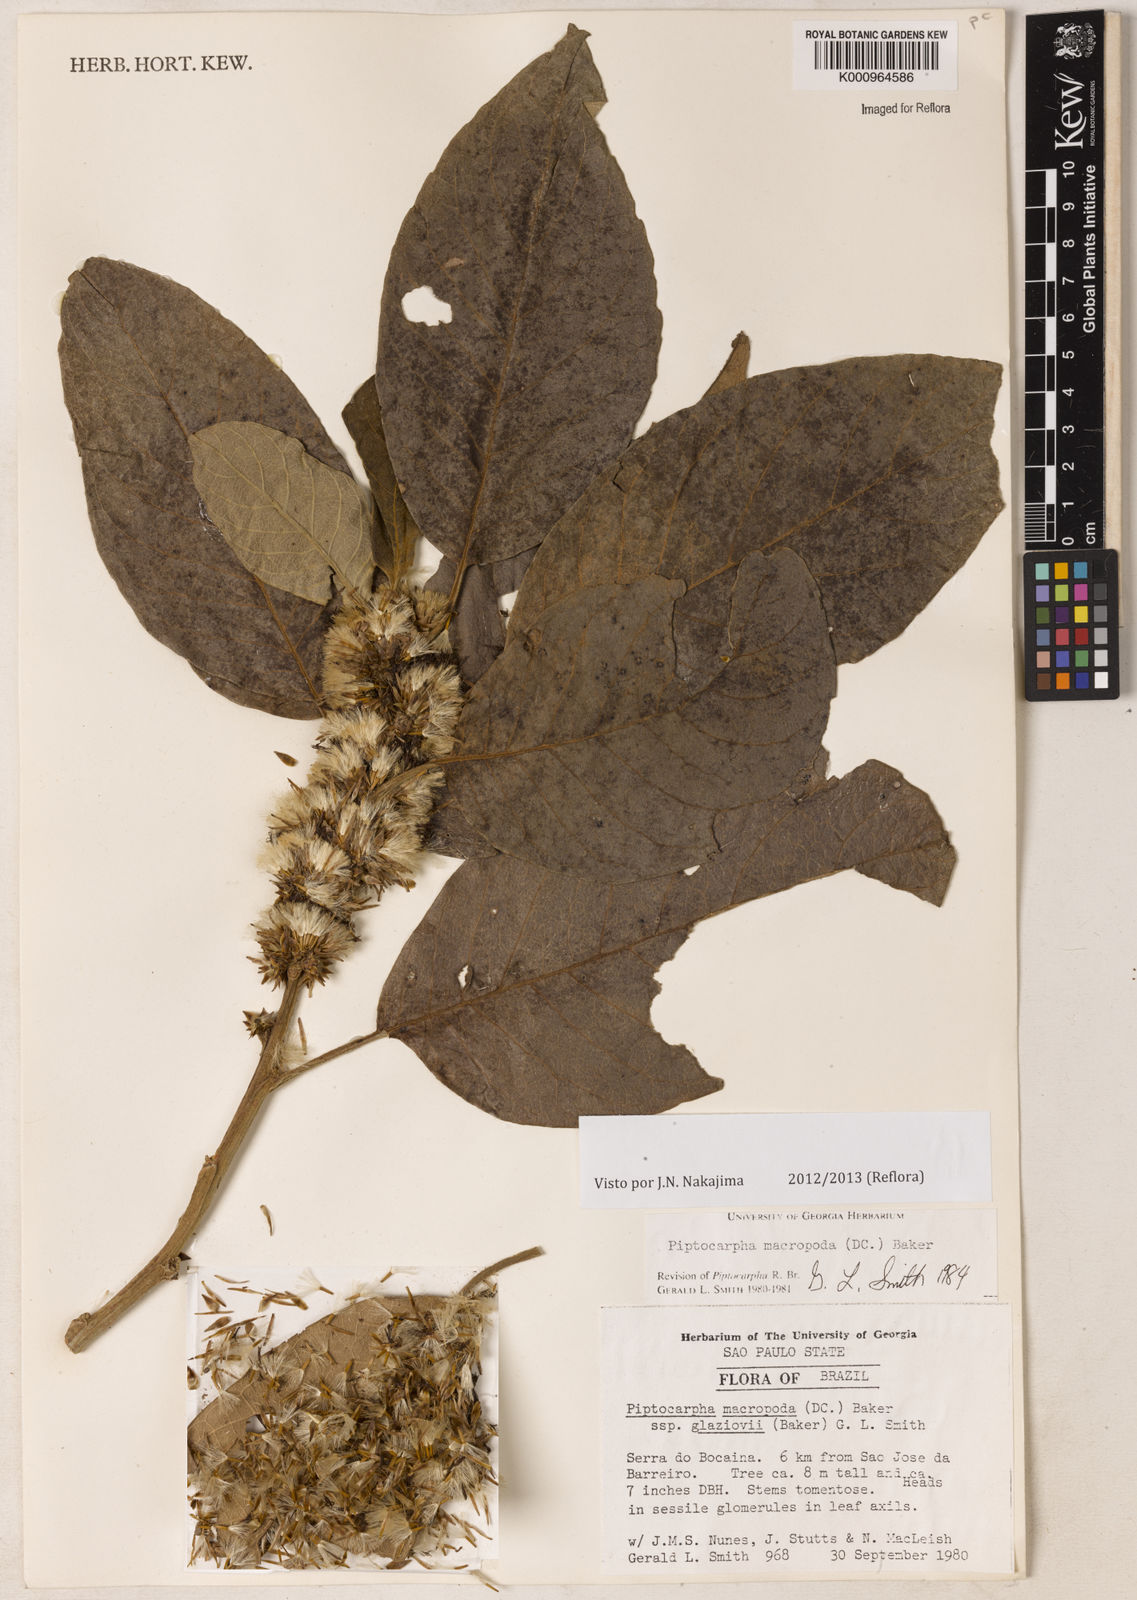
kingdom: Plantae
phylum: Tracheophyta
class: Magnoliopsida
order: Asterales
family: Asteraceae
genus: Piptocarpha
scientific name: Piptocarpha macropoda
